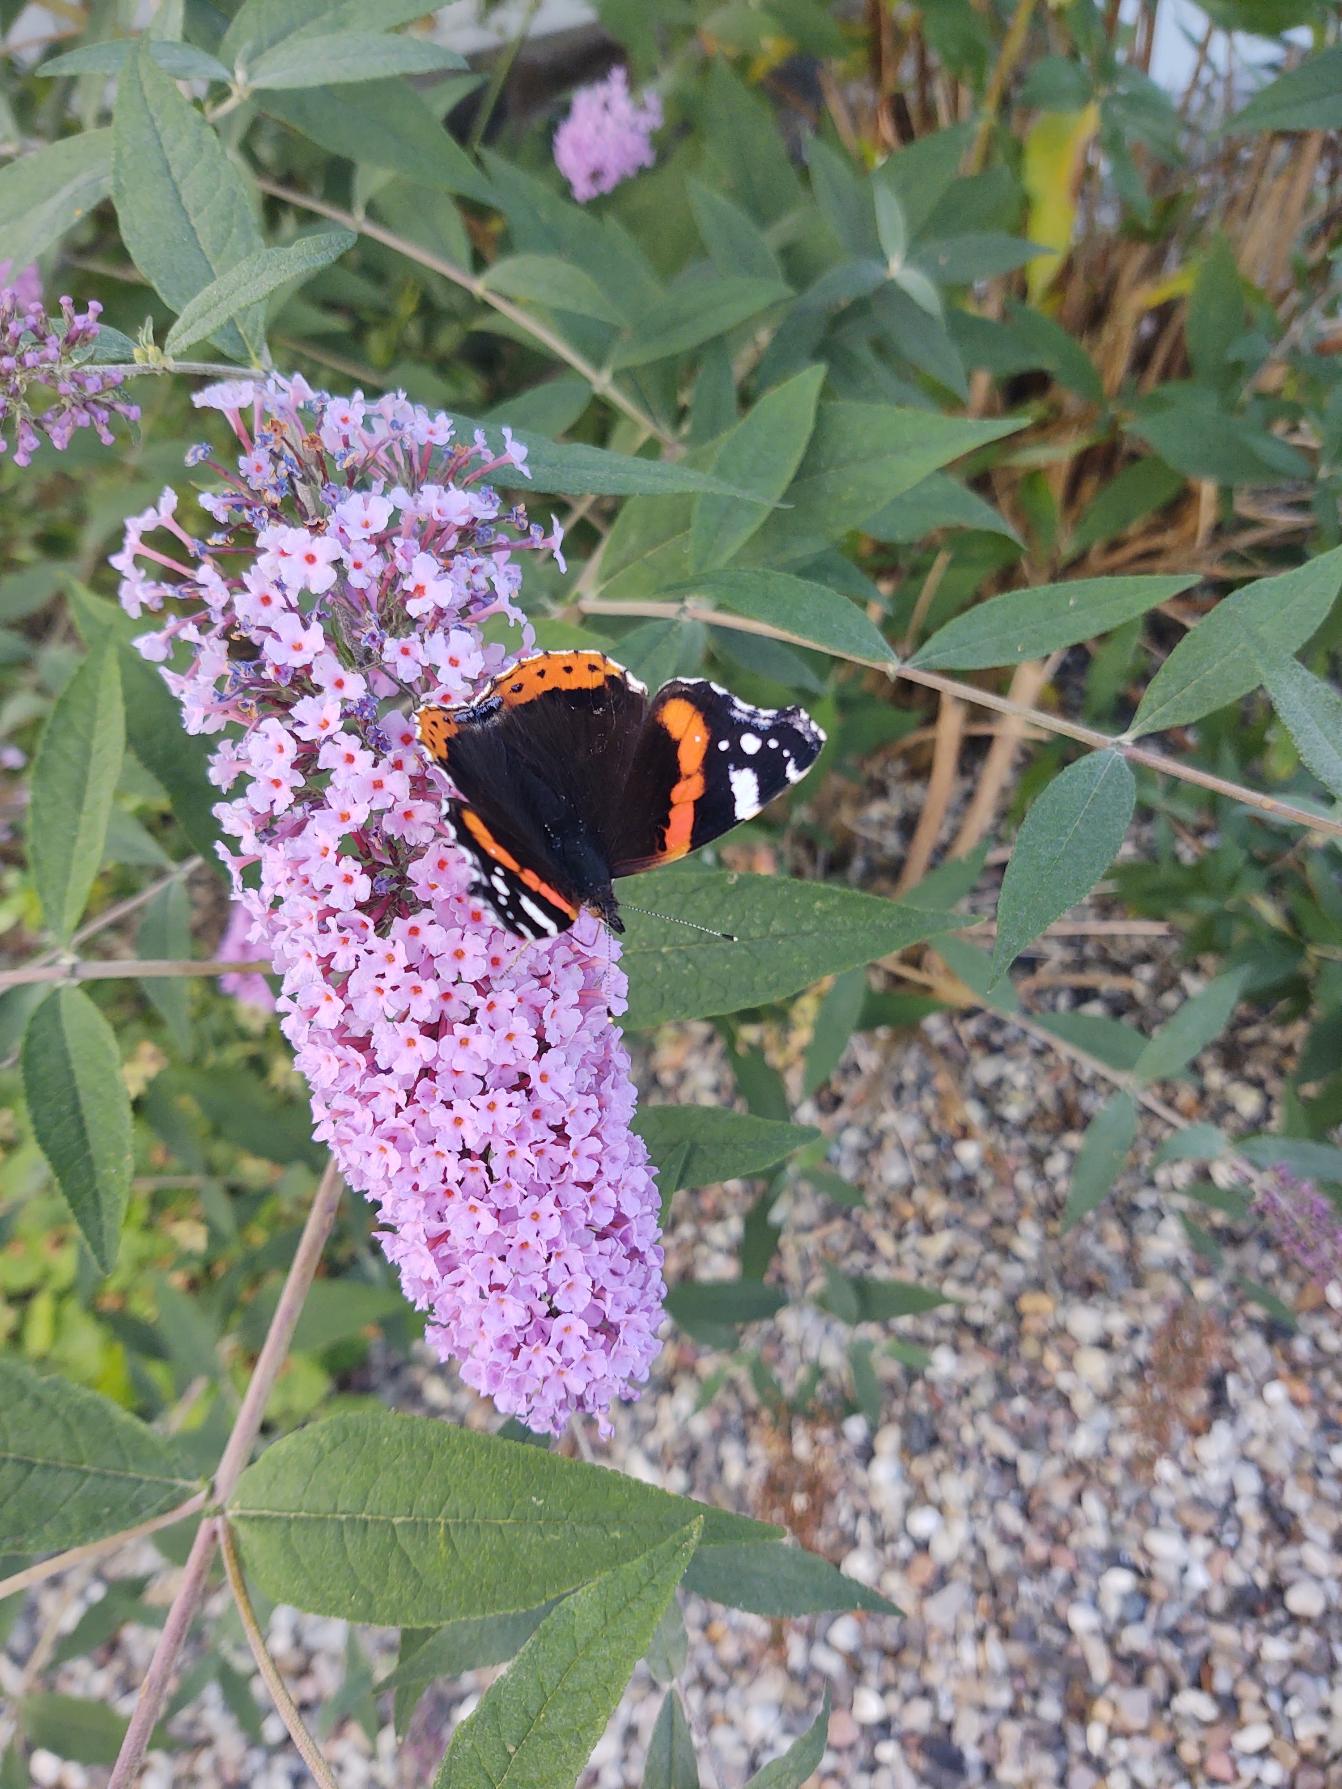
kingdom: Animalia
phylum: Arthropoda
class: Insecta
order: Lepidoptera
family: Nymphalidae
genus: Vanessa
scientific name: Vanessa atalanta
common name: Admiral
